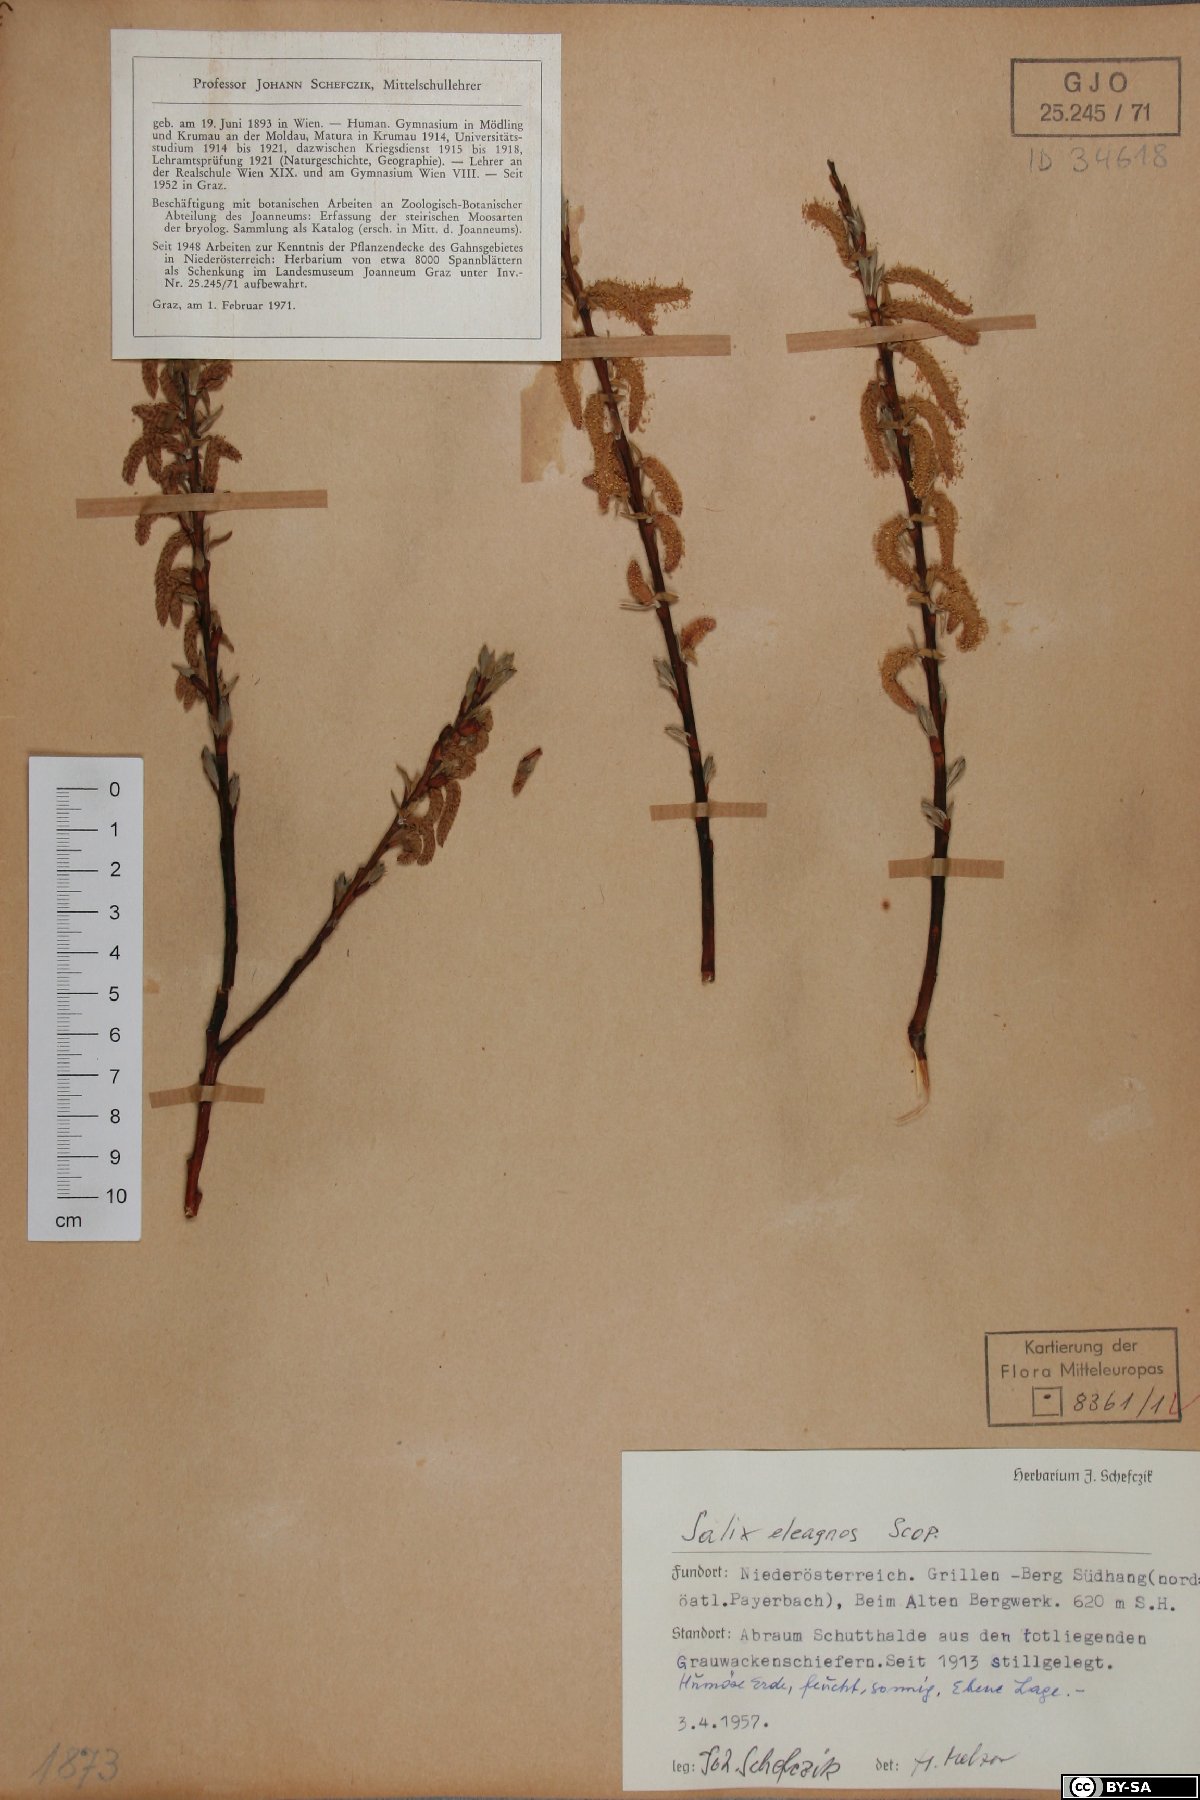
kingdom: Plantae
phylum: Tracheophyta
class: Magnoliopsida
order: Malpighiales
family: Salicaceae
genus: Salix
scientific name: Salix eleagnos
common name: Elaeagnus willow
